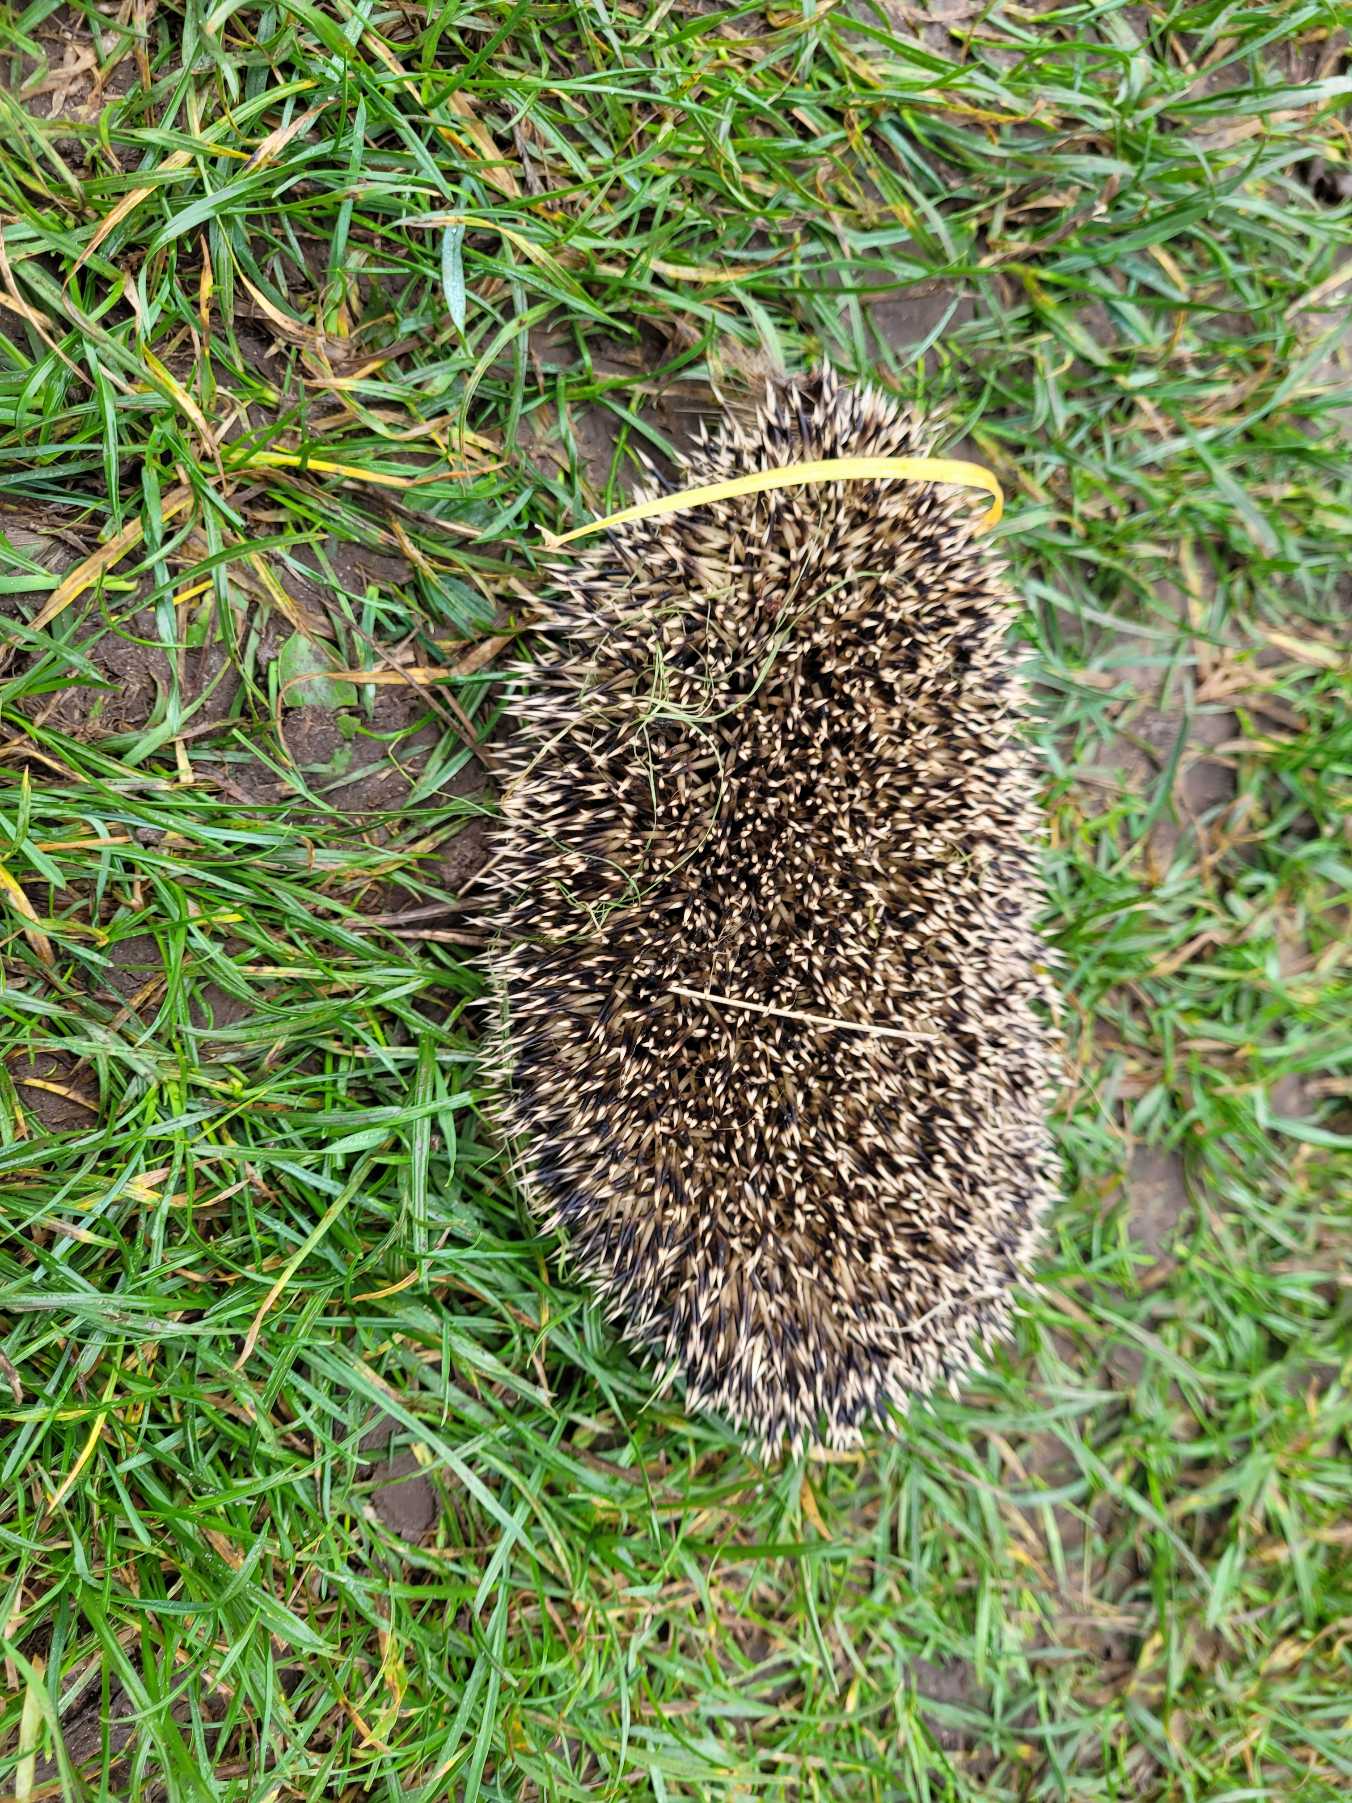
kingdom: Animalia
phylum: Chordata
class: Mammalia
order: Erinaceomorpha
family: Erinaceidae
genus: Erinaceus
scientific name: Erinaceus europaeus
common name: Pindsvin
